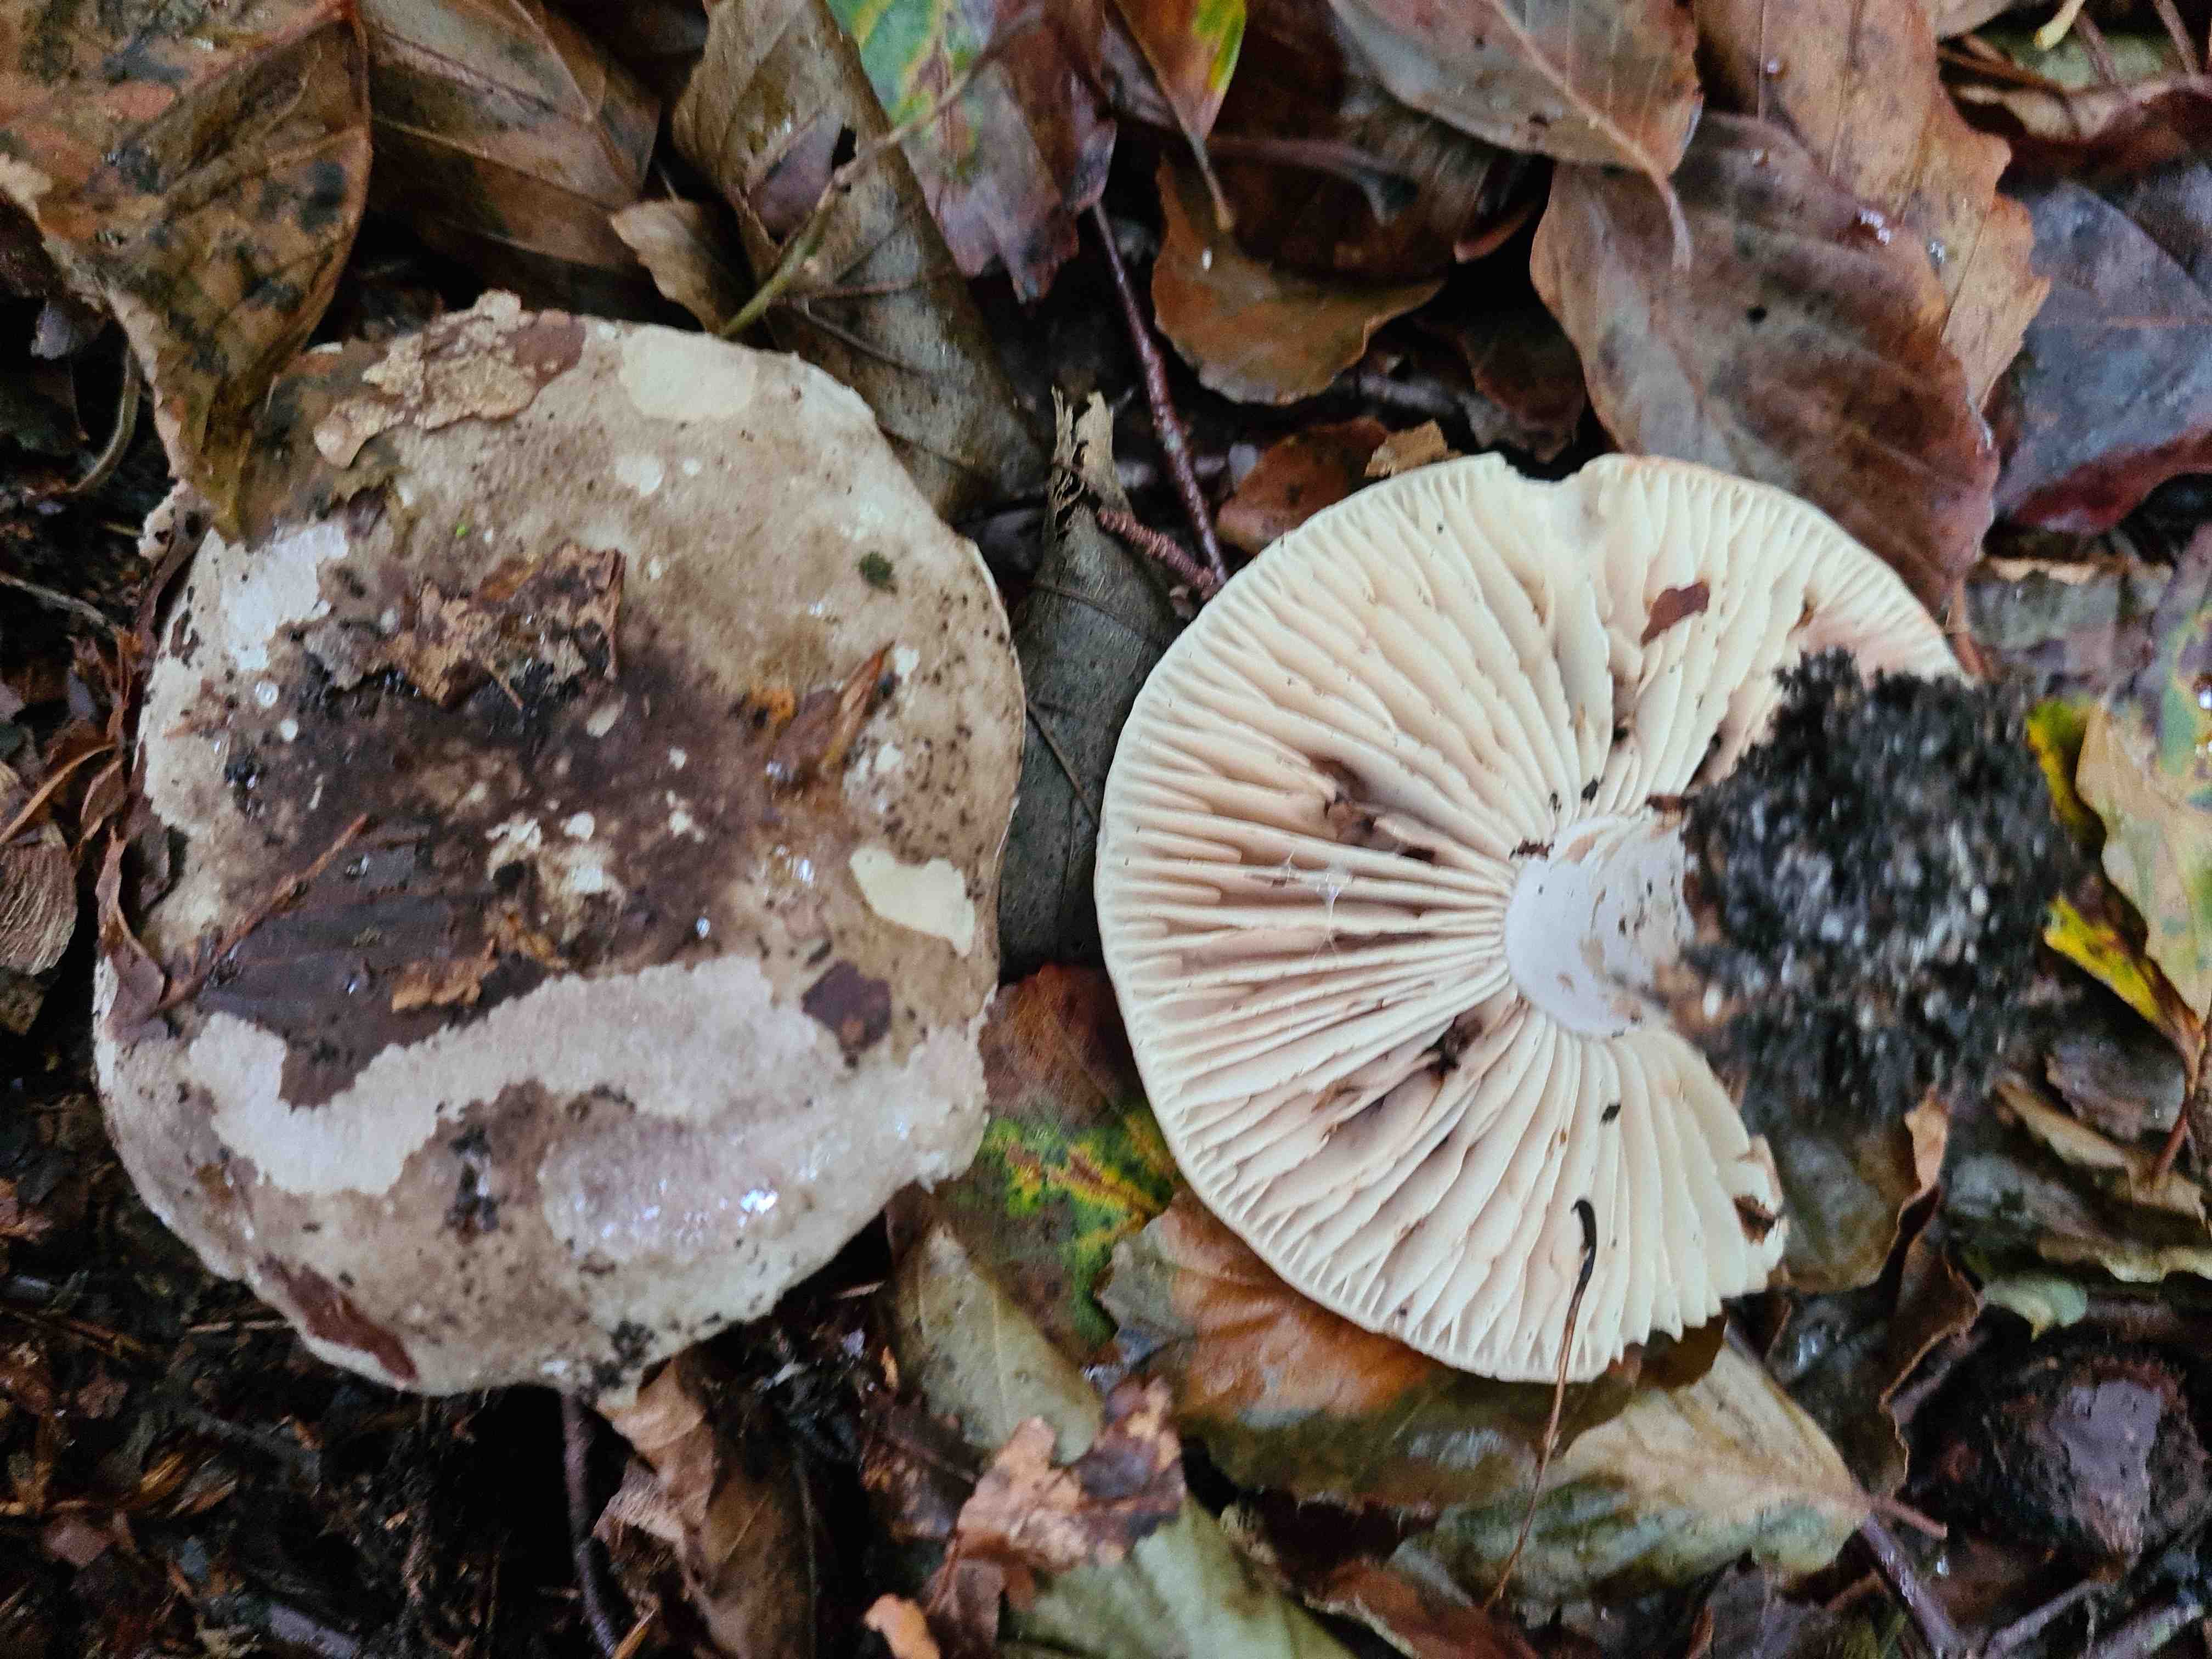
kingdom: Fungi
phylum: Basidiomycota
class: Agaricomycetes
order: Russulales
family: Russulaceae
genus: Russula
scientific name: Russula adusta
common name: sværtende skørhat
